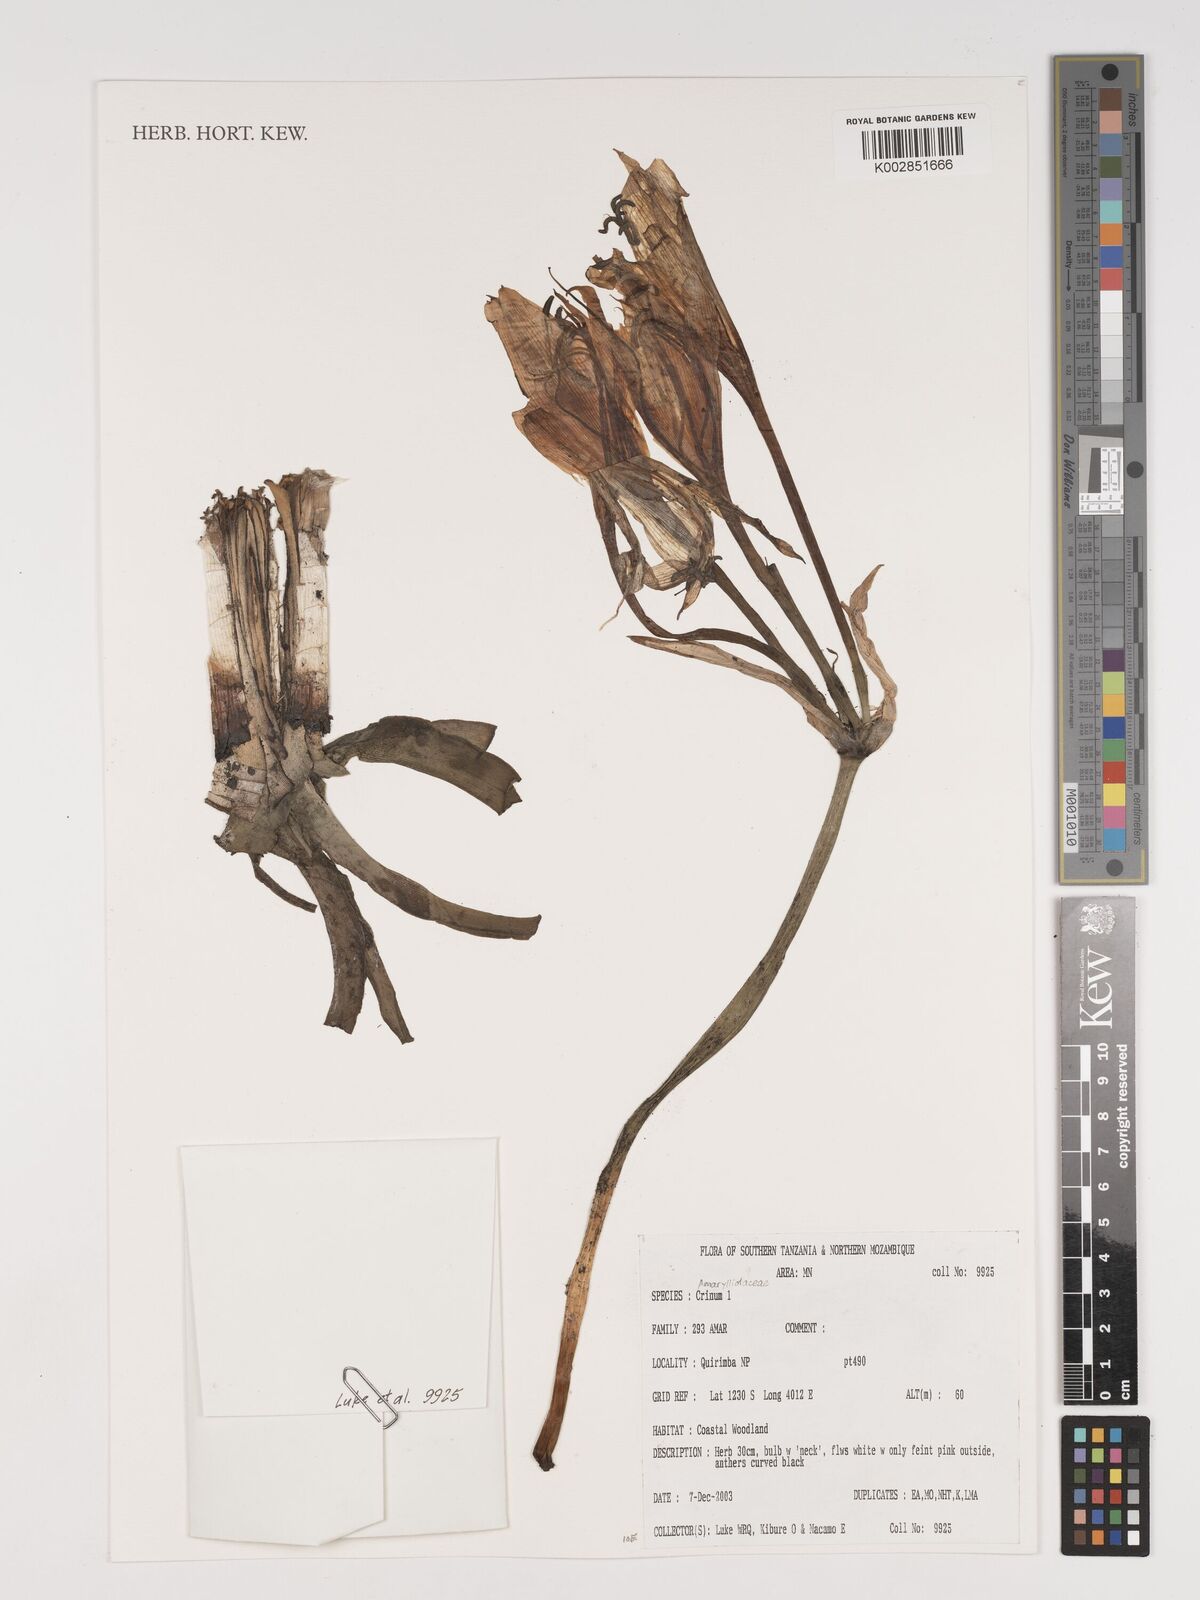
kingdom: Plantae
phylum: Tracheophyta
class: Liliopsida
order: Asparagales
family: Amaryllidaceae
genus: Crinum
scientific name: Crinum
